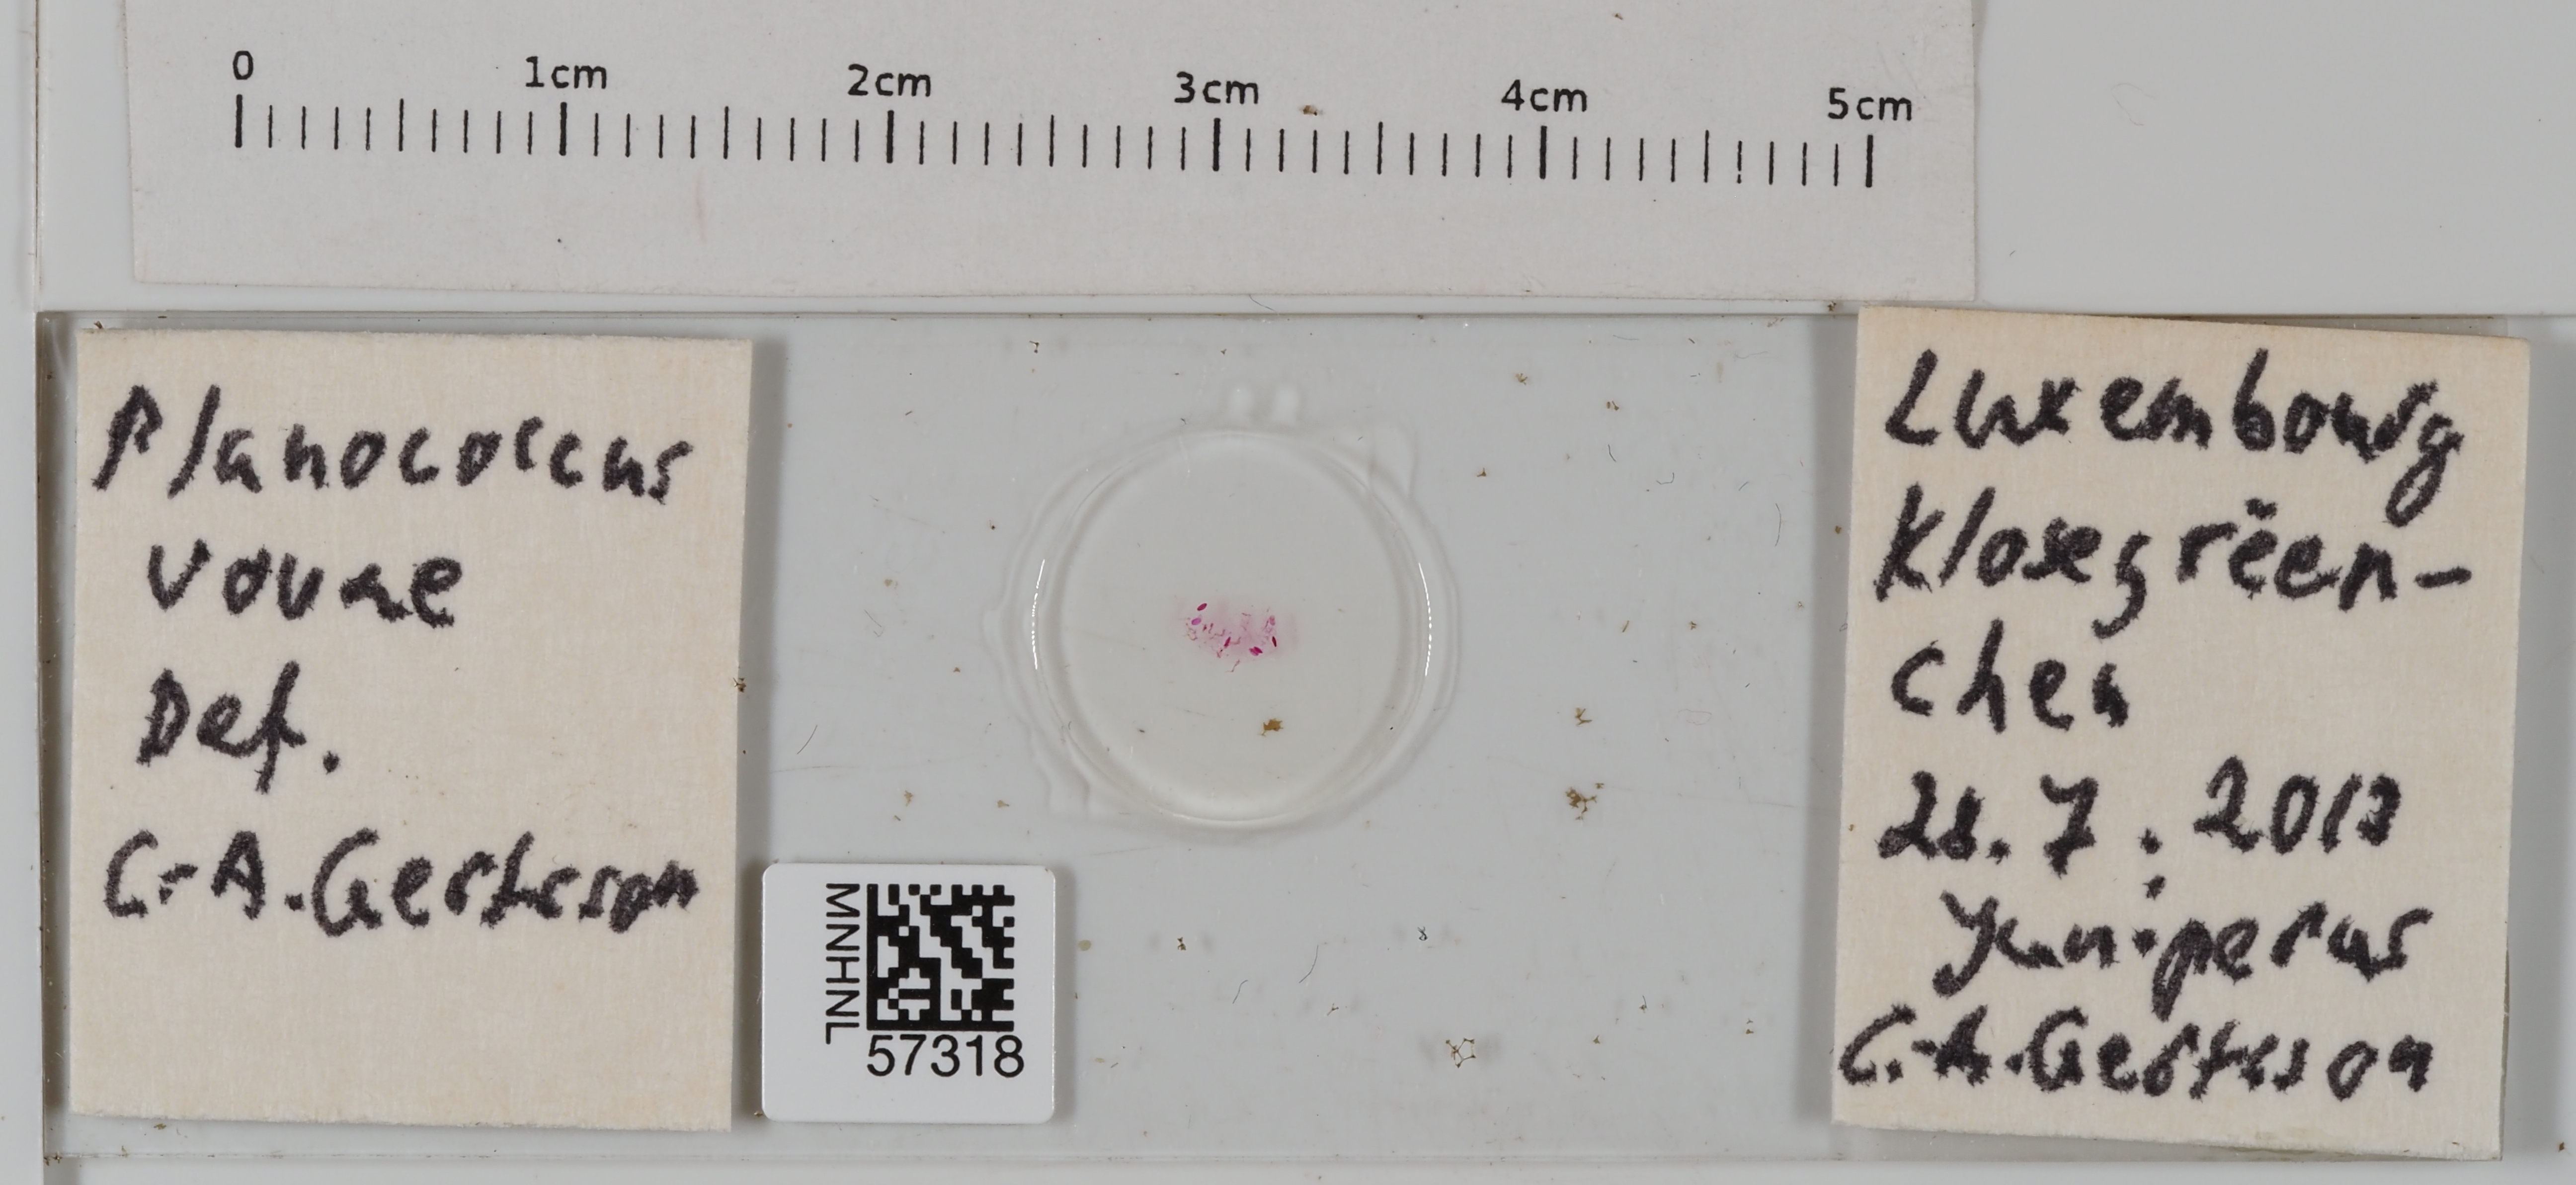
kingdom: Animalia
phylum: Arthropoda
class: Insecta
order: Hemiptera
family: Pseudococcidae
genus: Planococcus
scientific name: Planococcus vovae
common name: Nassonov's mealybug
